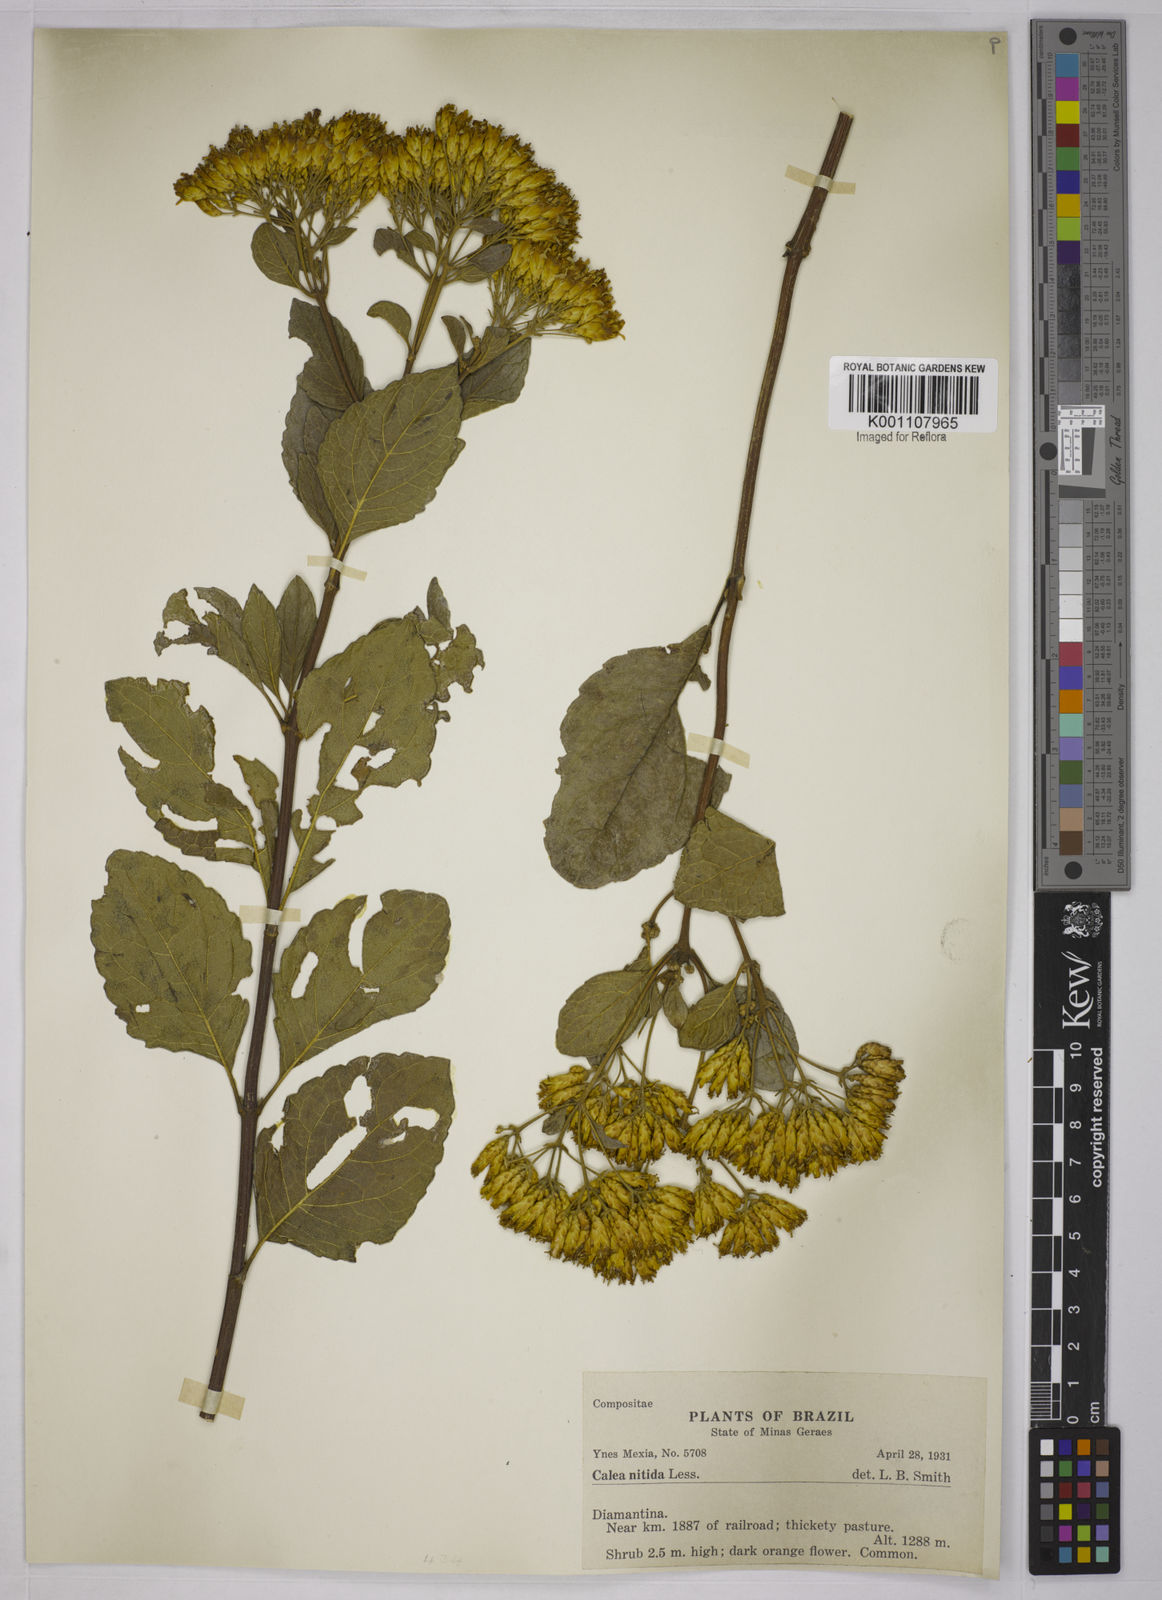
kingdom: Plantae
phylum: Tracheophyta
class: Magnoliopsida
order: Asterales
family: Asteraceae
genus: Calea
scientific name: Calea nitida
